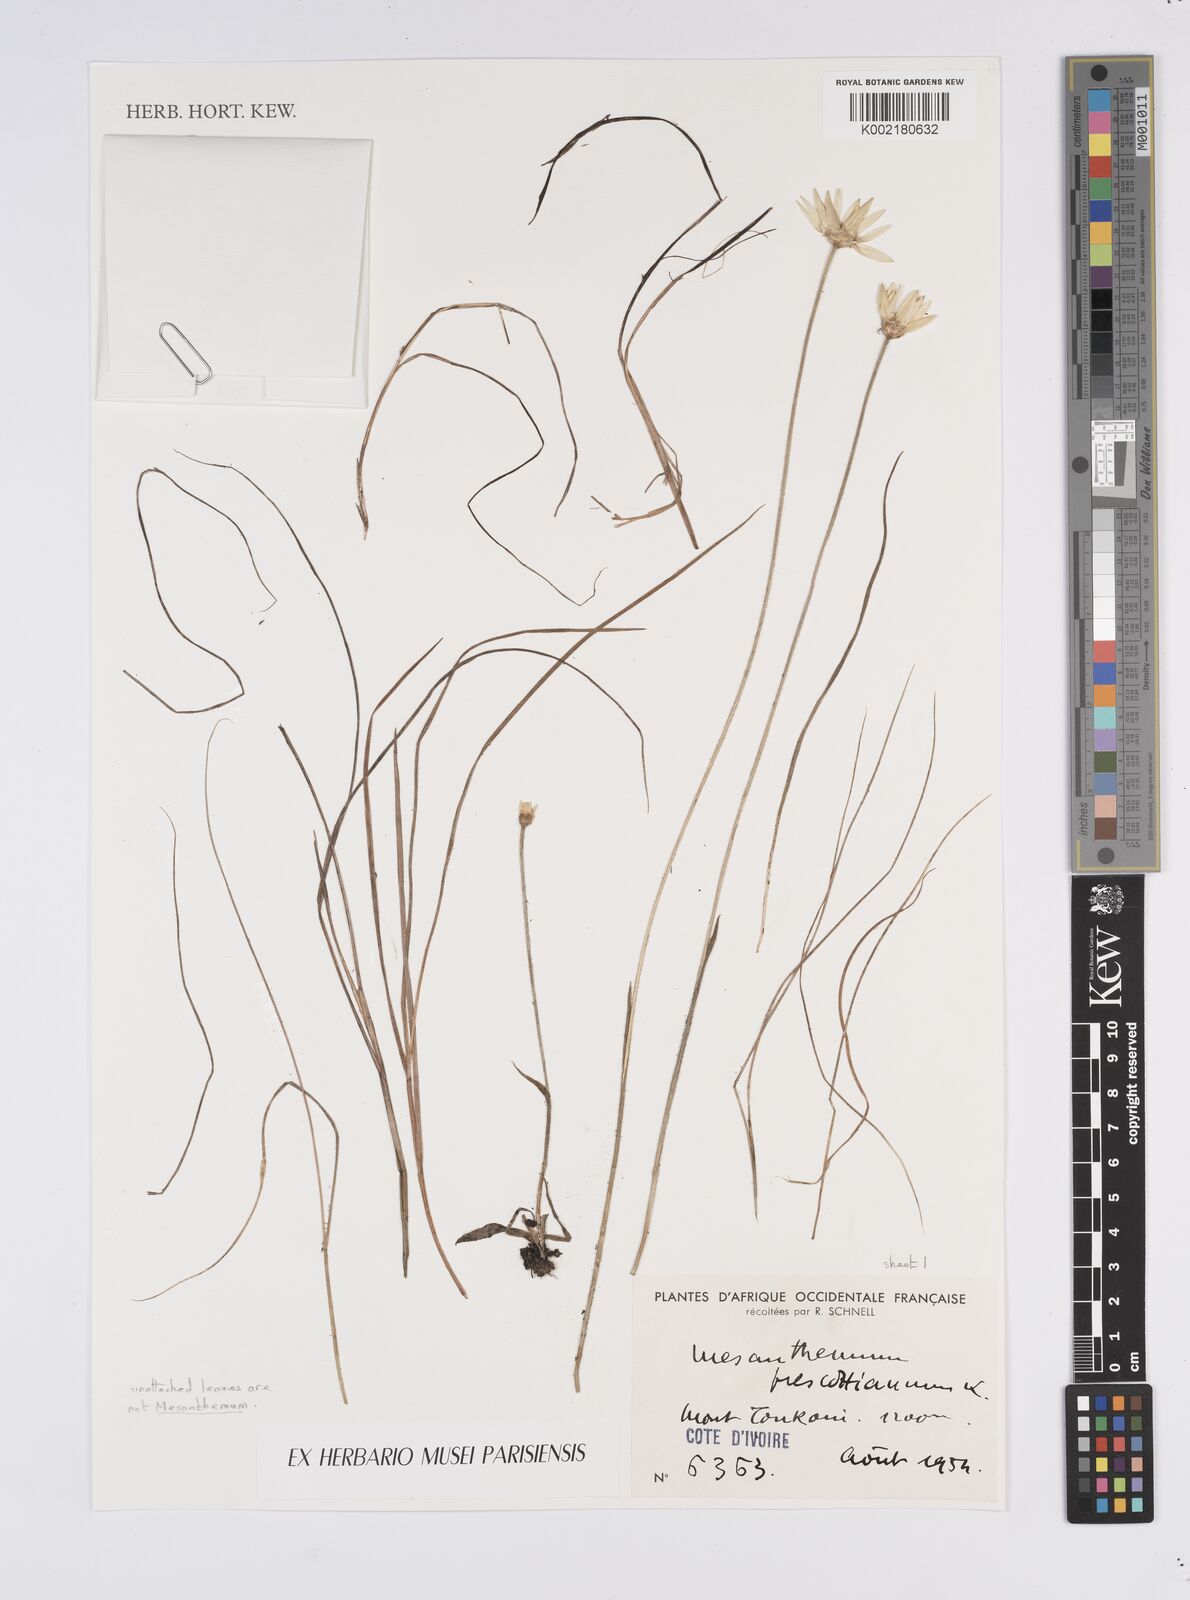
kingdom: Plantae
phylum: Tracheophyta
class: Liliopsida
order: Poales
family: Eriocaulaceae
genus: Mesanthemum
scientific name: Mesanthemum prescottianum
